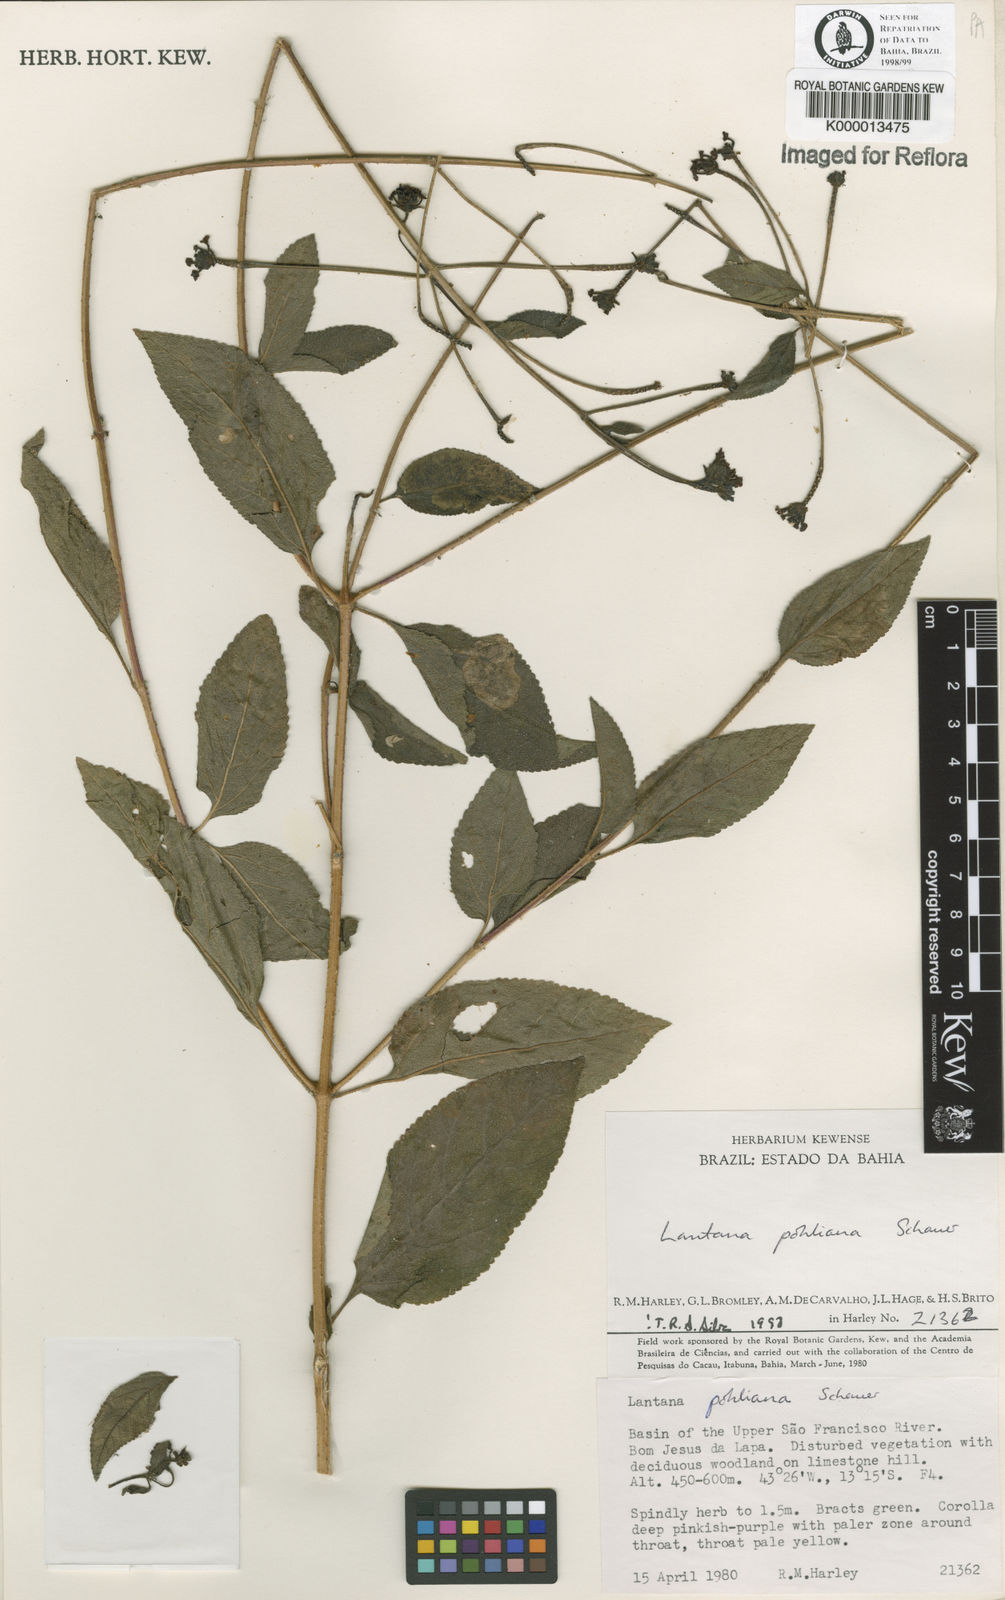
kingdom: Plantae
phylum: Tracheophyta
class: Magnoliopsida
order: Lamiales
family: Verbenaceae
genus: Lantana
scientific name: Lantana pohliana
